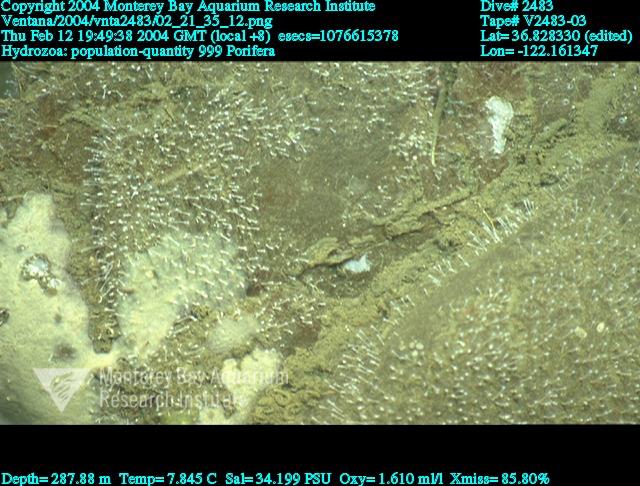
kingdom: Animalia
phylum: Porifera
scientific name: Porifera
